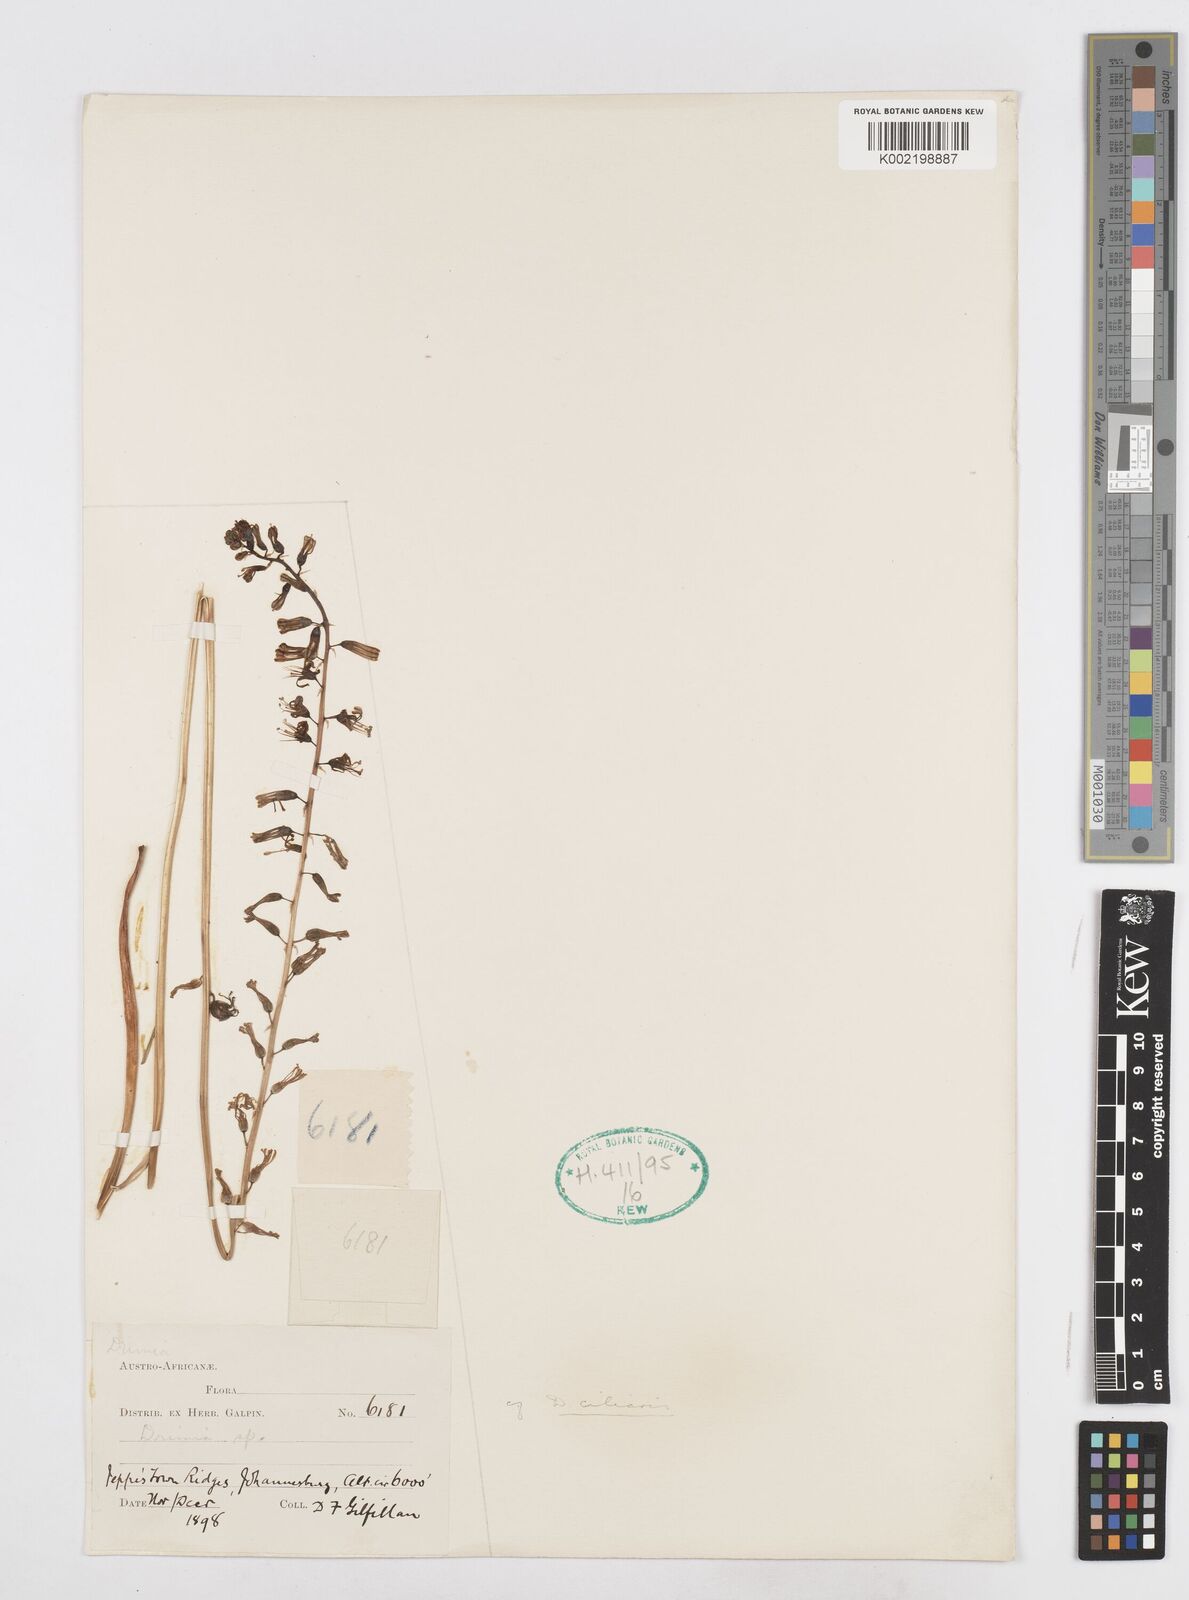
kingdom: Plantae
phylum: Tracheophyta
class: Liliopsida
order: Asparagales
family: Asparagaceae
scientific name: Asparagaceae
